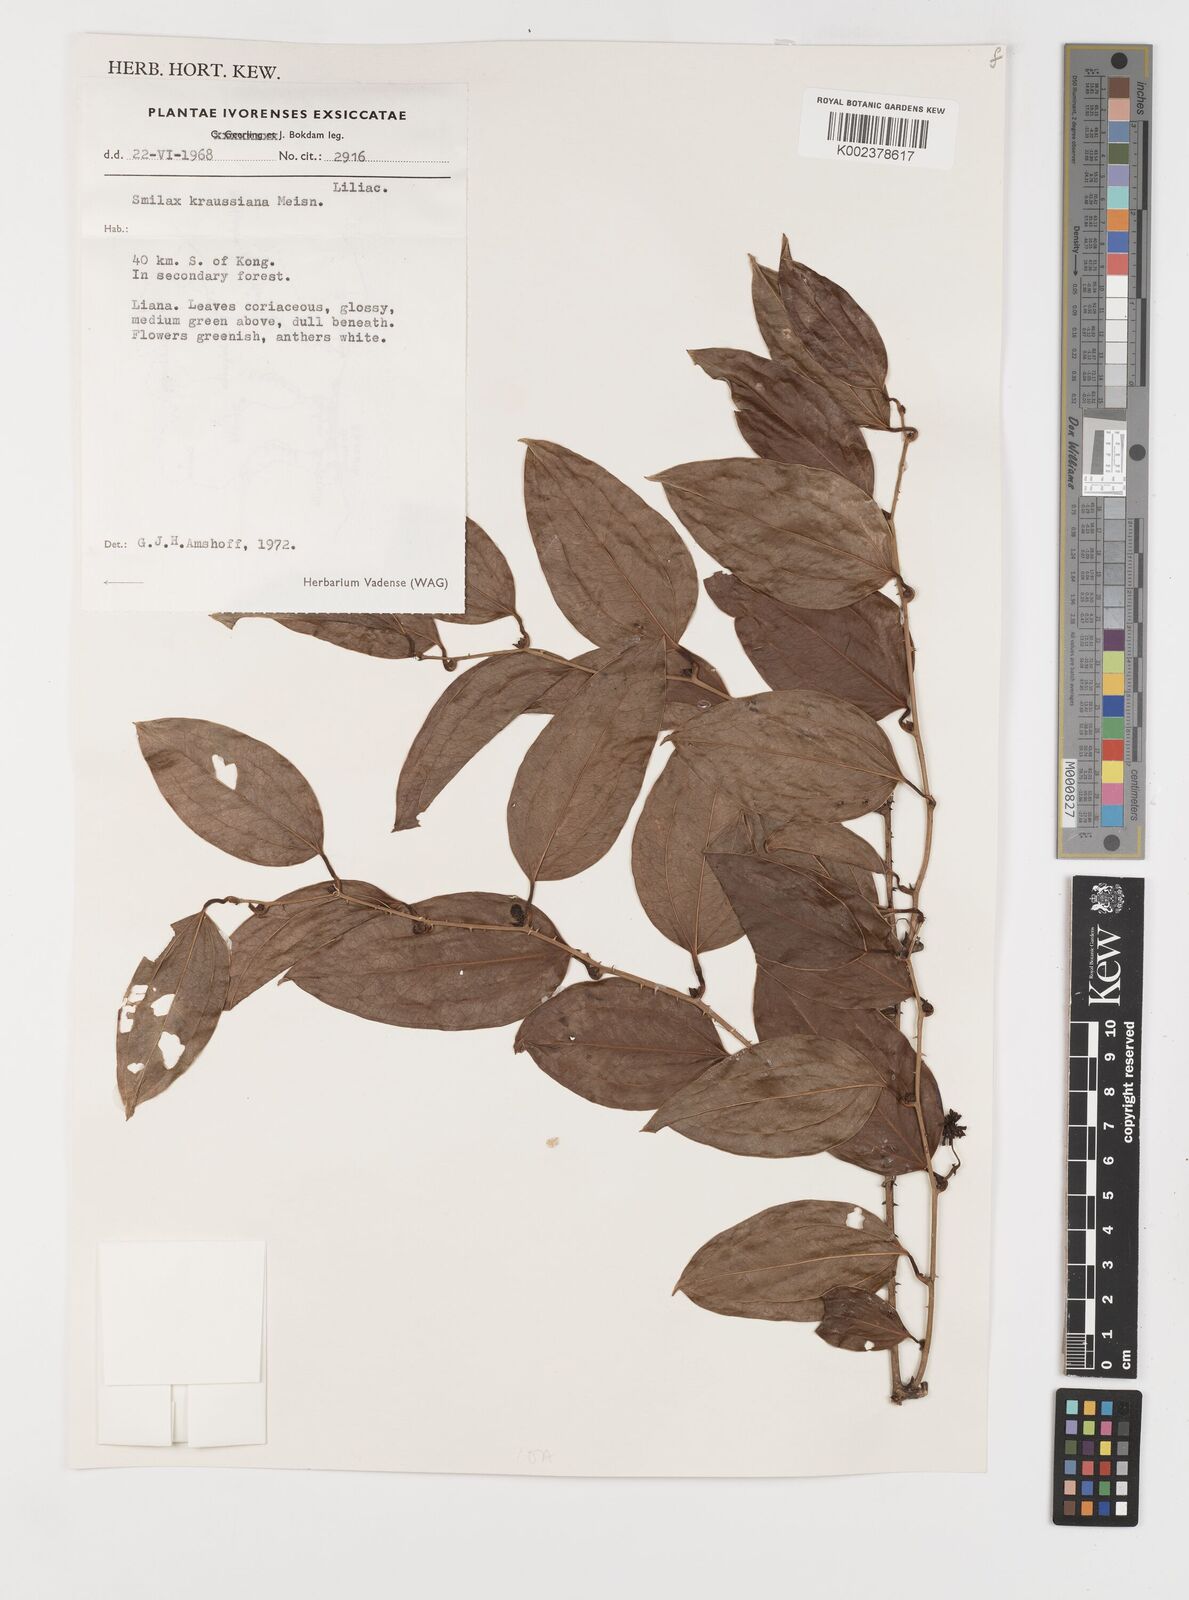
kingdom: Plantae
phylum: Tracheophyta
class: Liliopsida
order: Liliales
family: Smilacaceae
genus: Smilax
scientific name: Smilax anceps
